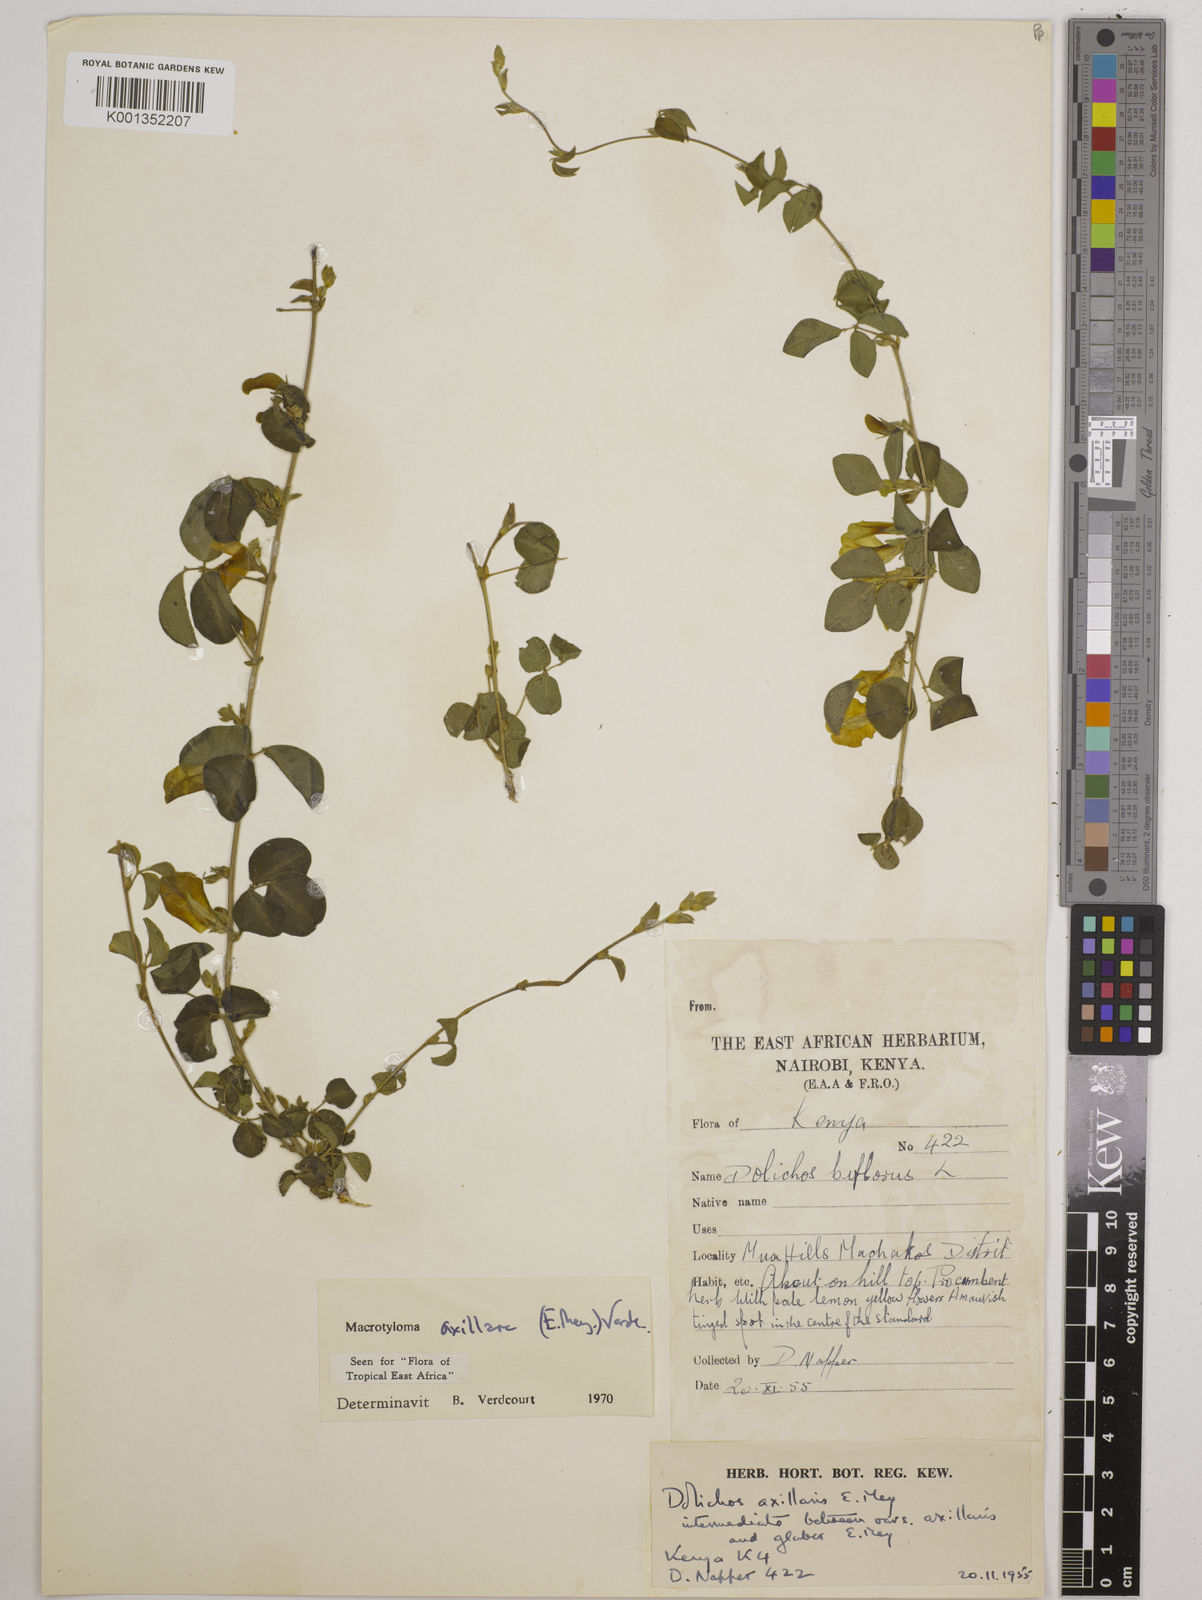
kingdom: Plantae
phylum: Tracheophyta
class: Magnoliopsida
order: Fabales
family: Fabaceae
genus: Macrotyloma
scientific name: Macrotyloma axillare
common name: Perennial horsegram
